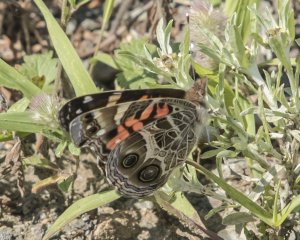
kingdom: Animalia
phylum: Arthropoda
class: Insecta
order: Lepidoptera
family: Nymphalidae
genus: Vanessa
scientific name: Vanessa virginiensis
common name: American Lady
